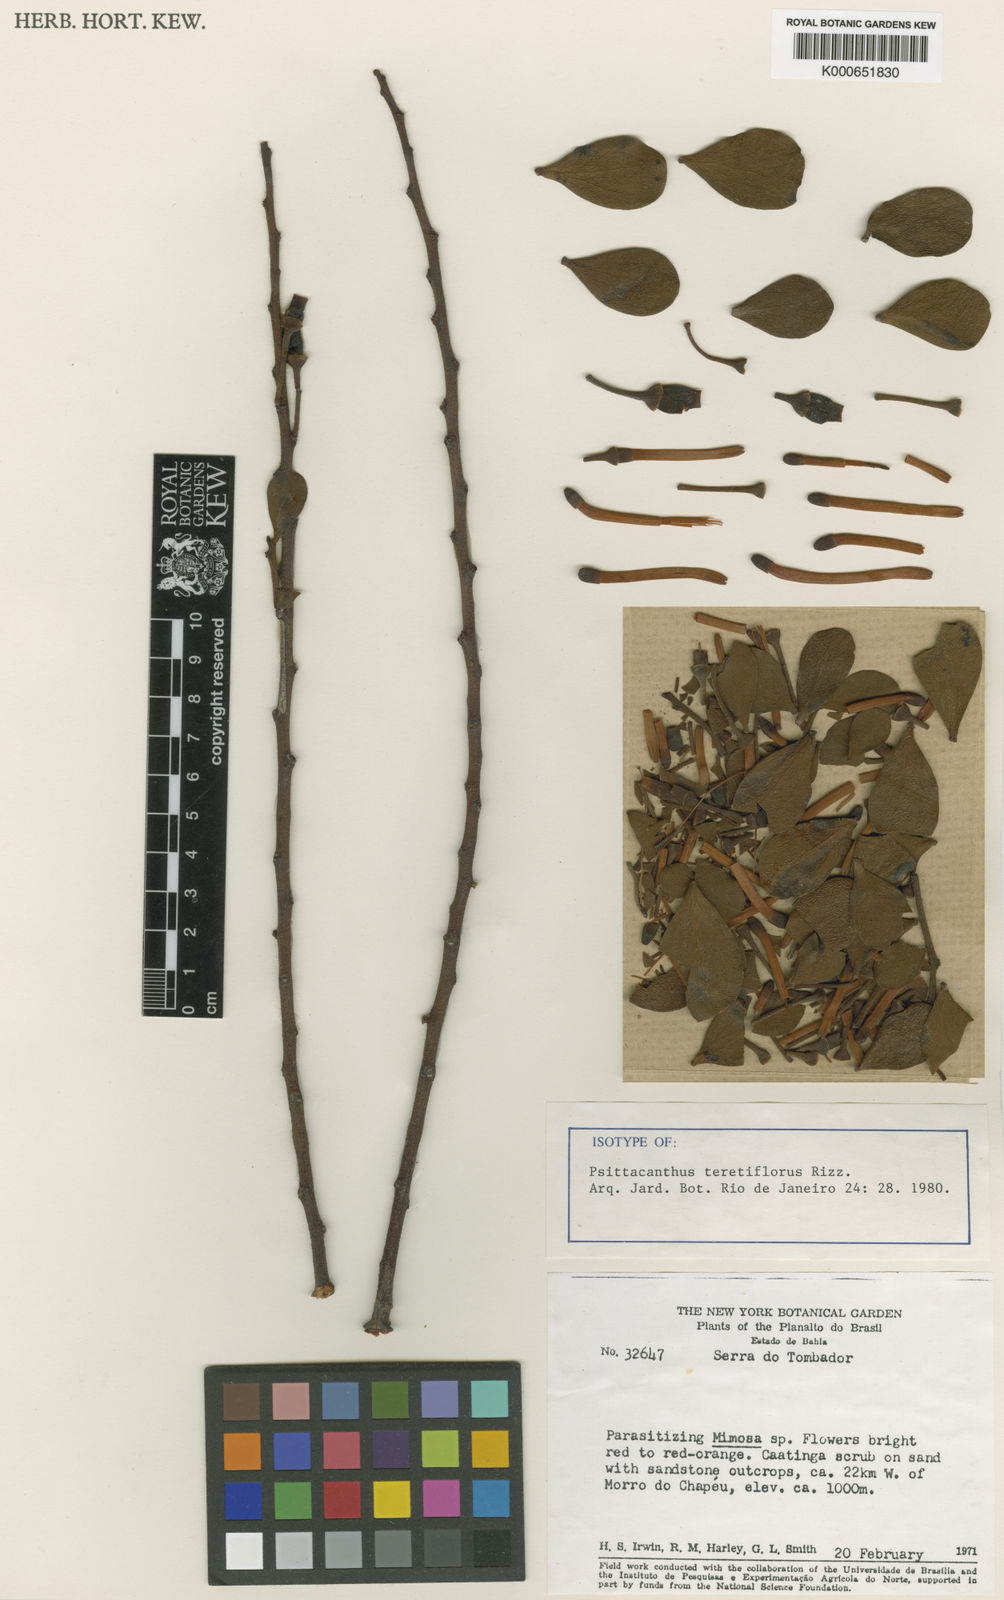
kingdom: Plantae
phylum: Tracheophyta
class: Magnoliopsida
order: Santalales
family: Loranthaceae
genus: Ligaria
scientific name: Ligaria teretiflora
